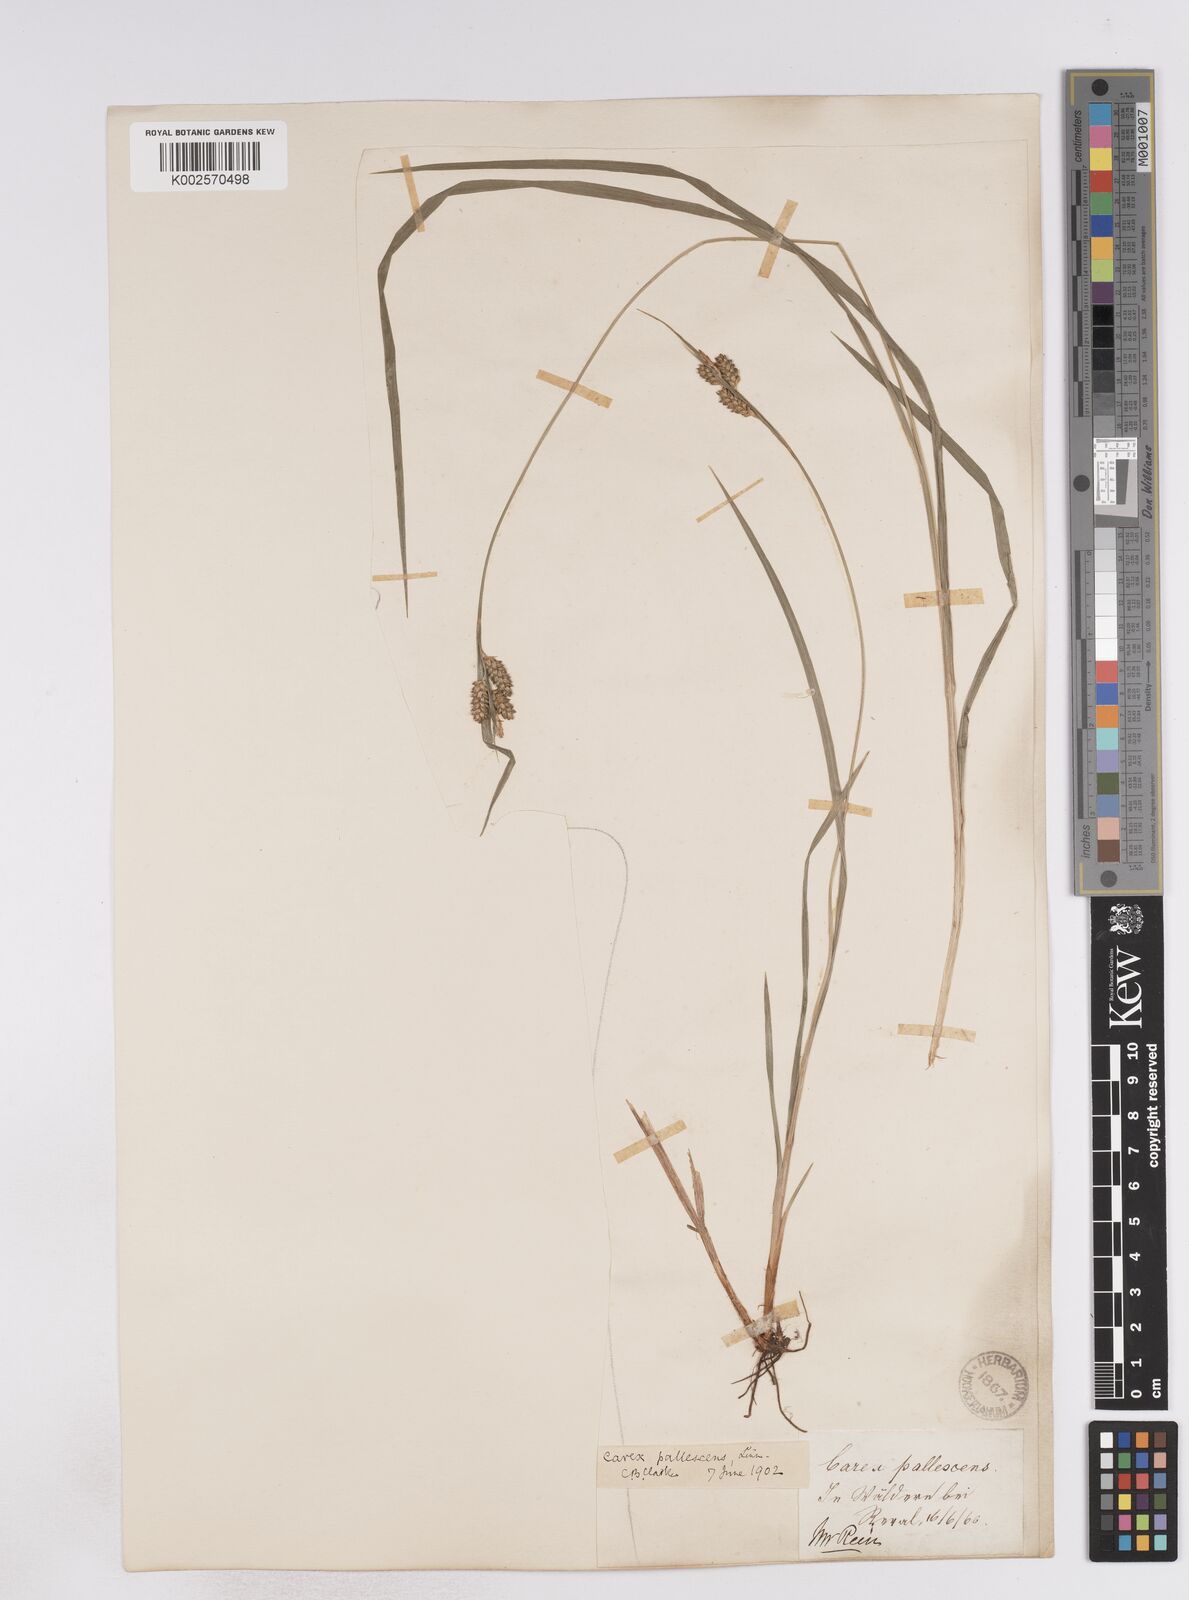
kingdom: Plantae
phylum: Tracheophyta
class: Liliopsida
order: Poales
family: Cyperaceae
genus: Carex
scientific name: Carex pallescens
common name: Pale sedge
